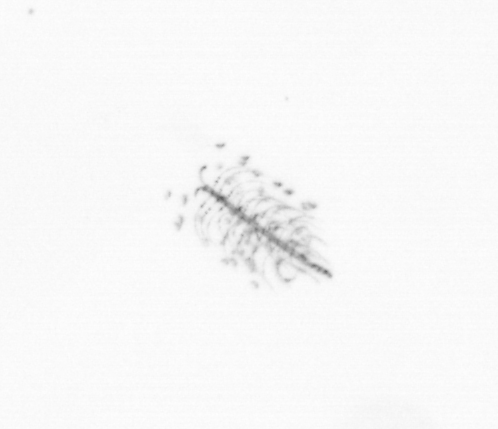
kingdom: Chromista
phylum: Ochrophyta
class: Bacillariophyceae
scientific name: Bacillariophyceae
